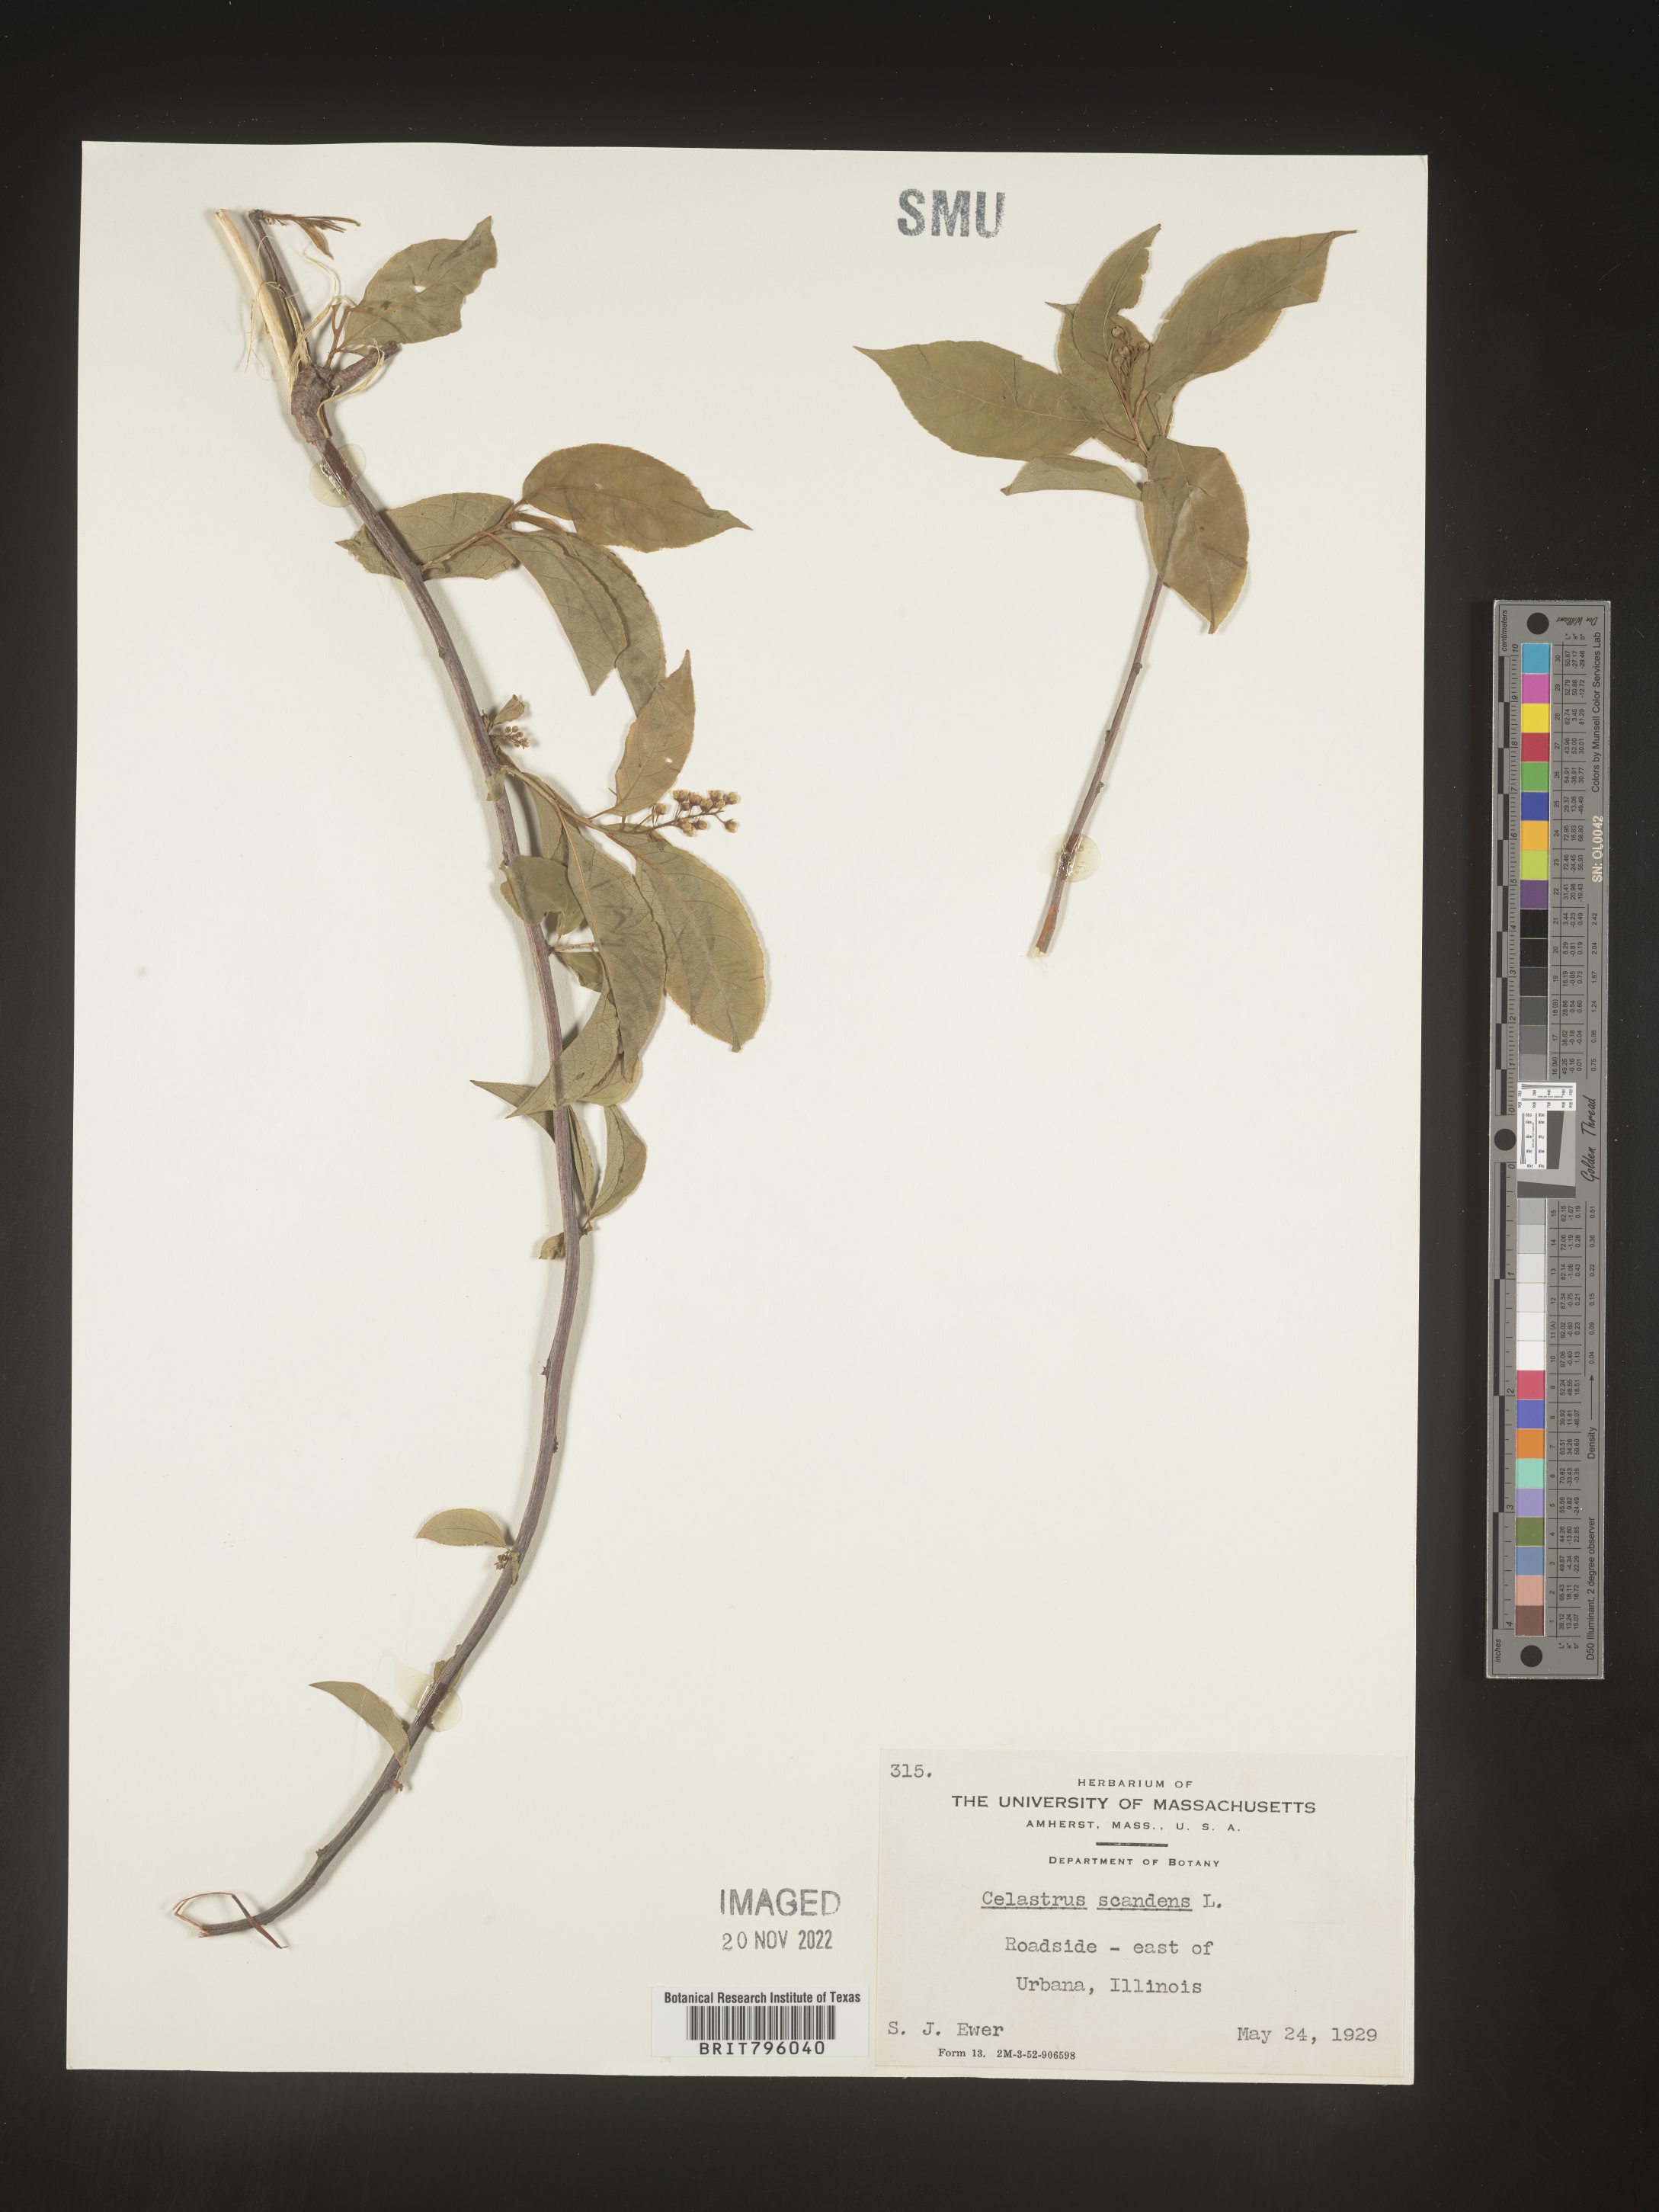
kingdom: Plantae
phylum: Tracheophyta
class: Magnoliopsida
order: Celastrales
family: Celastraceae
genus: Celastrus
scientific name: Celastrus scandens
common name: American bittersweet
